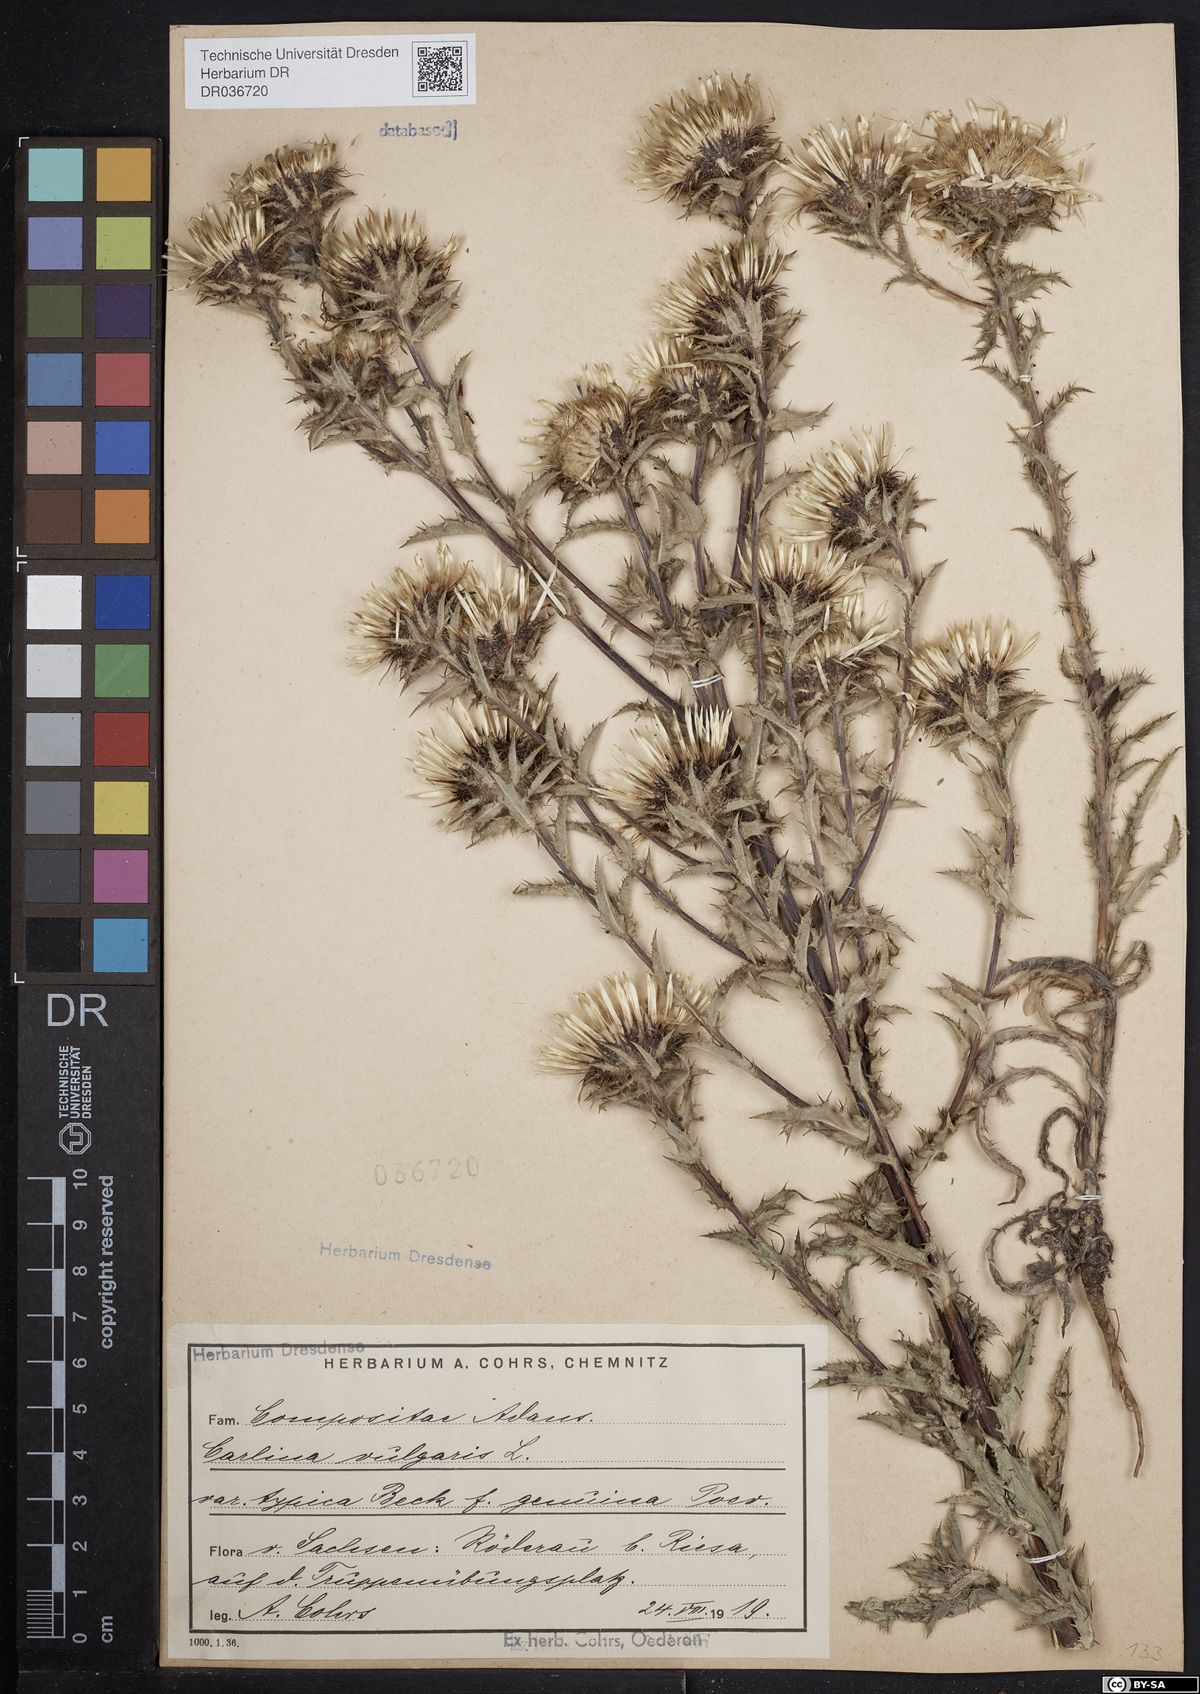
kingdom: Plantae
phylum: Tracheophyta
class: Magnoliopsida
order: Asterales
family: Asteraceae
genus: Carlina
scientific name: Carlina vulgaris
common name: Carline thistle
